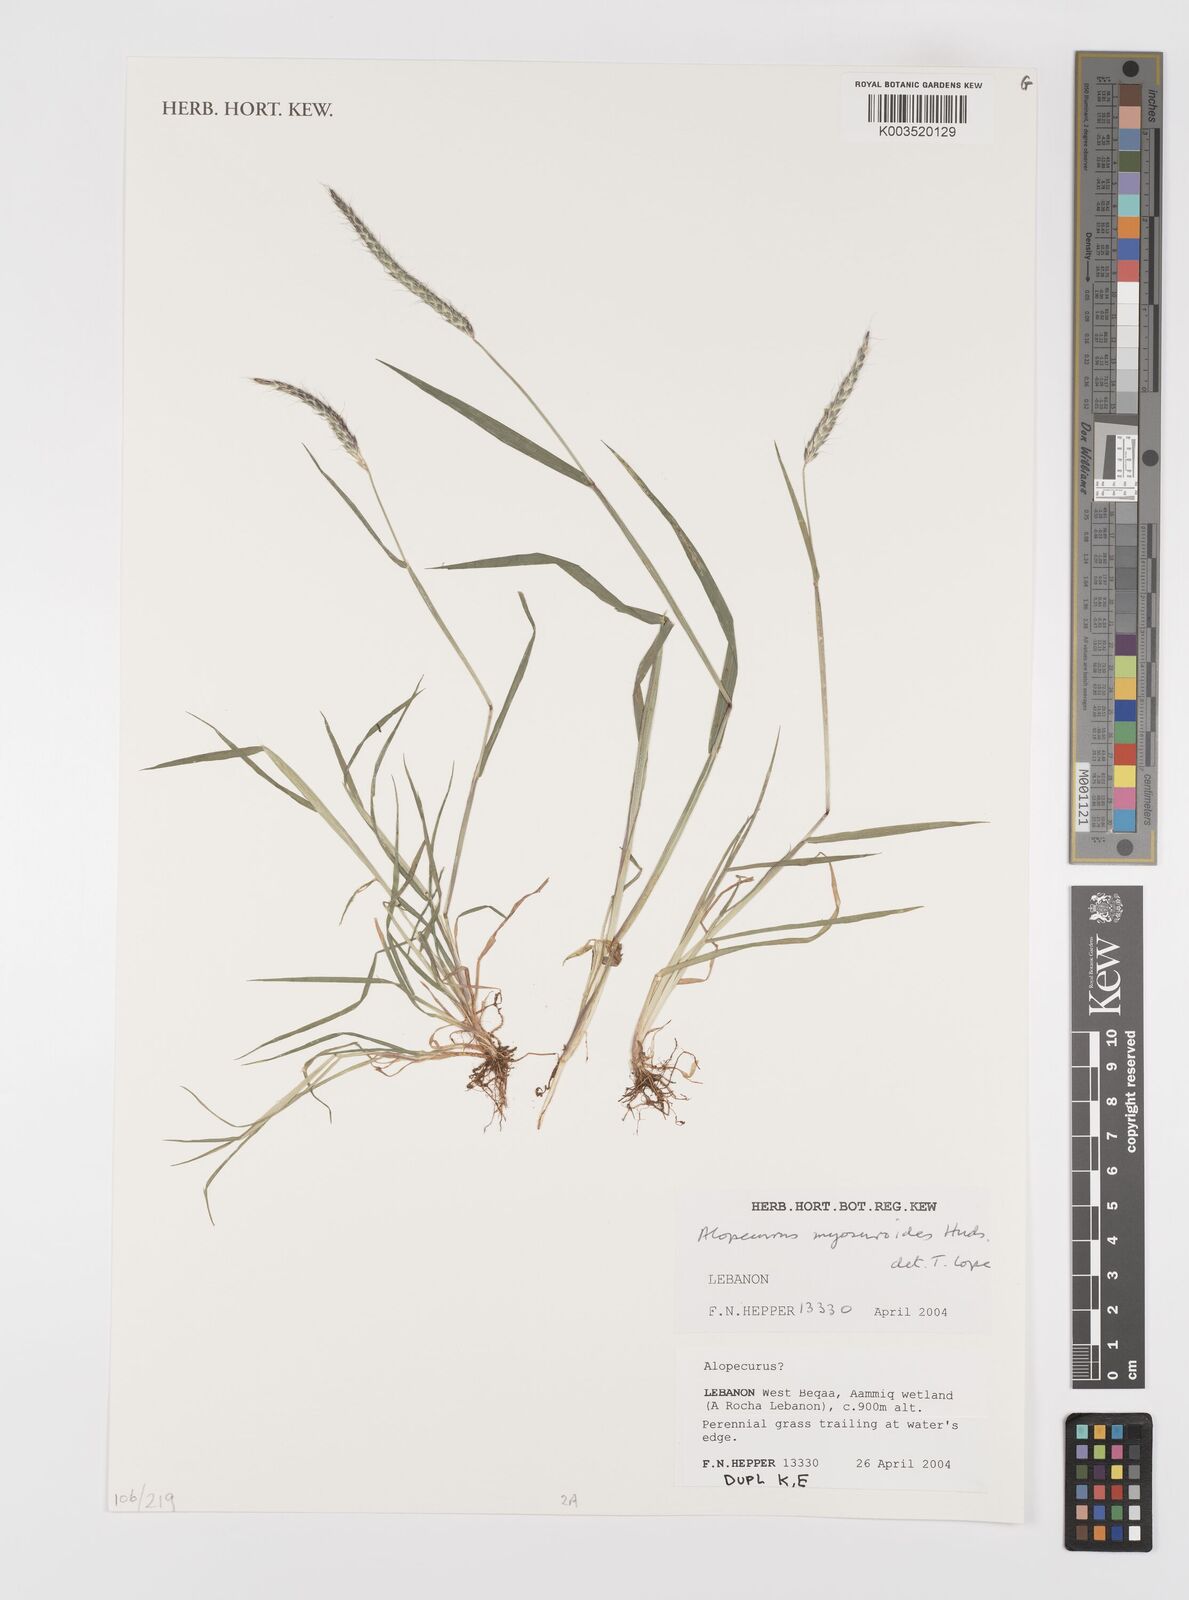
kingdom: Plantae
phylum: Tracheophyta
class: Liliopsida
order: Poales
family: Poaceae
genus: Alopecurus
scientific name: Alopecurus myosuroides
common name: Black-grass
